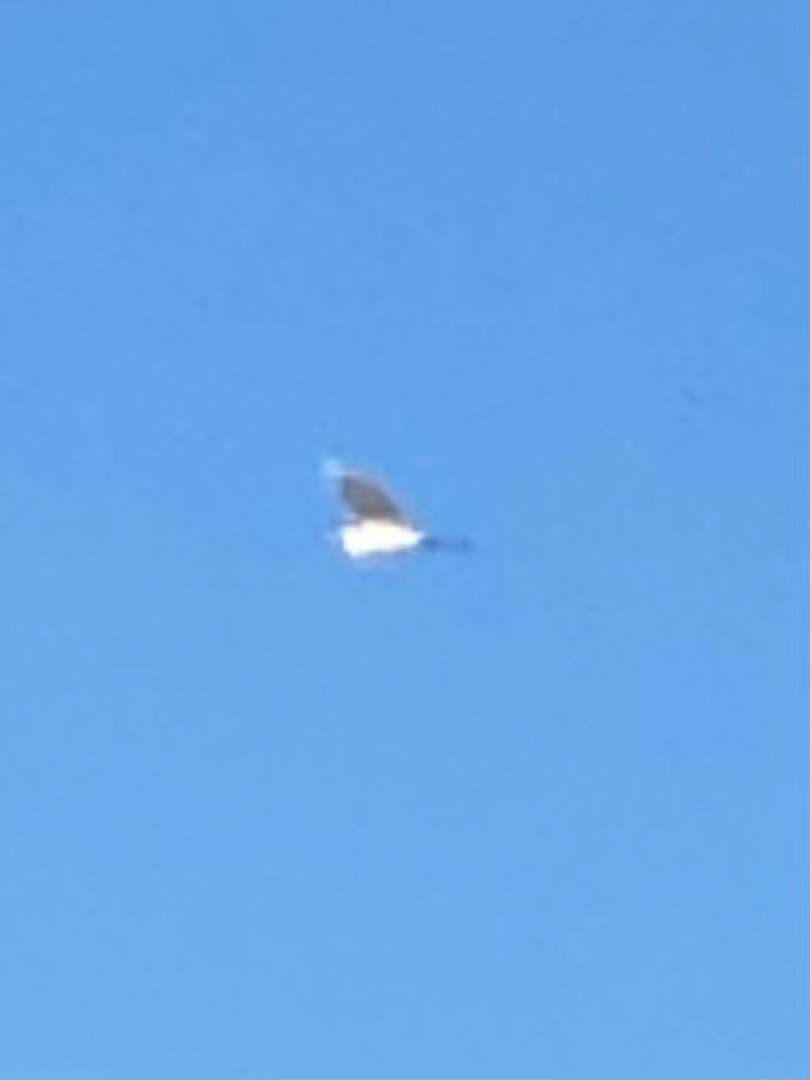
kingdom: Animalia
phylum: Chordata
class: Aves
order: Pelecaniformes
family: Ardeidae
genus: Ardea
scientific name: Ardea alba
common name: Sølvhejre
